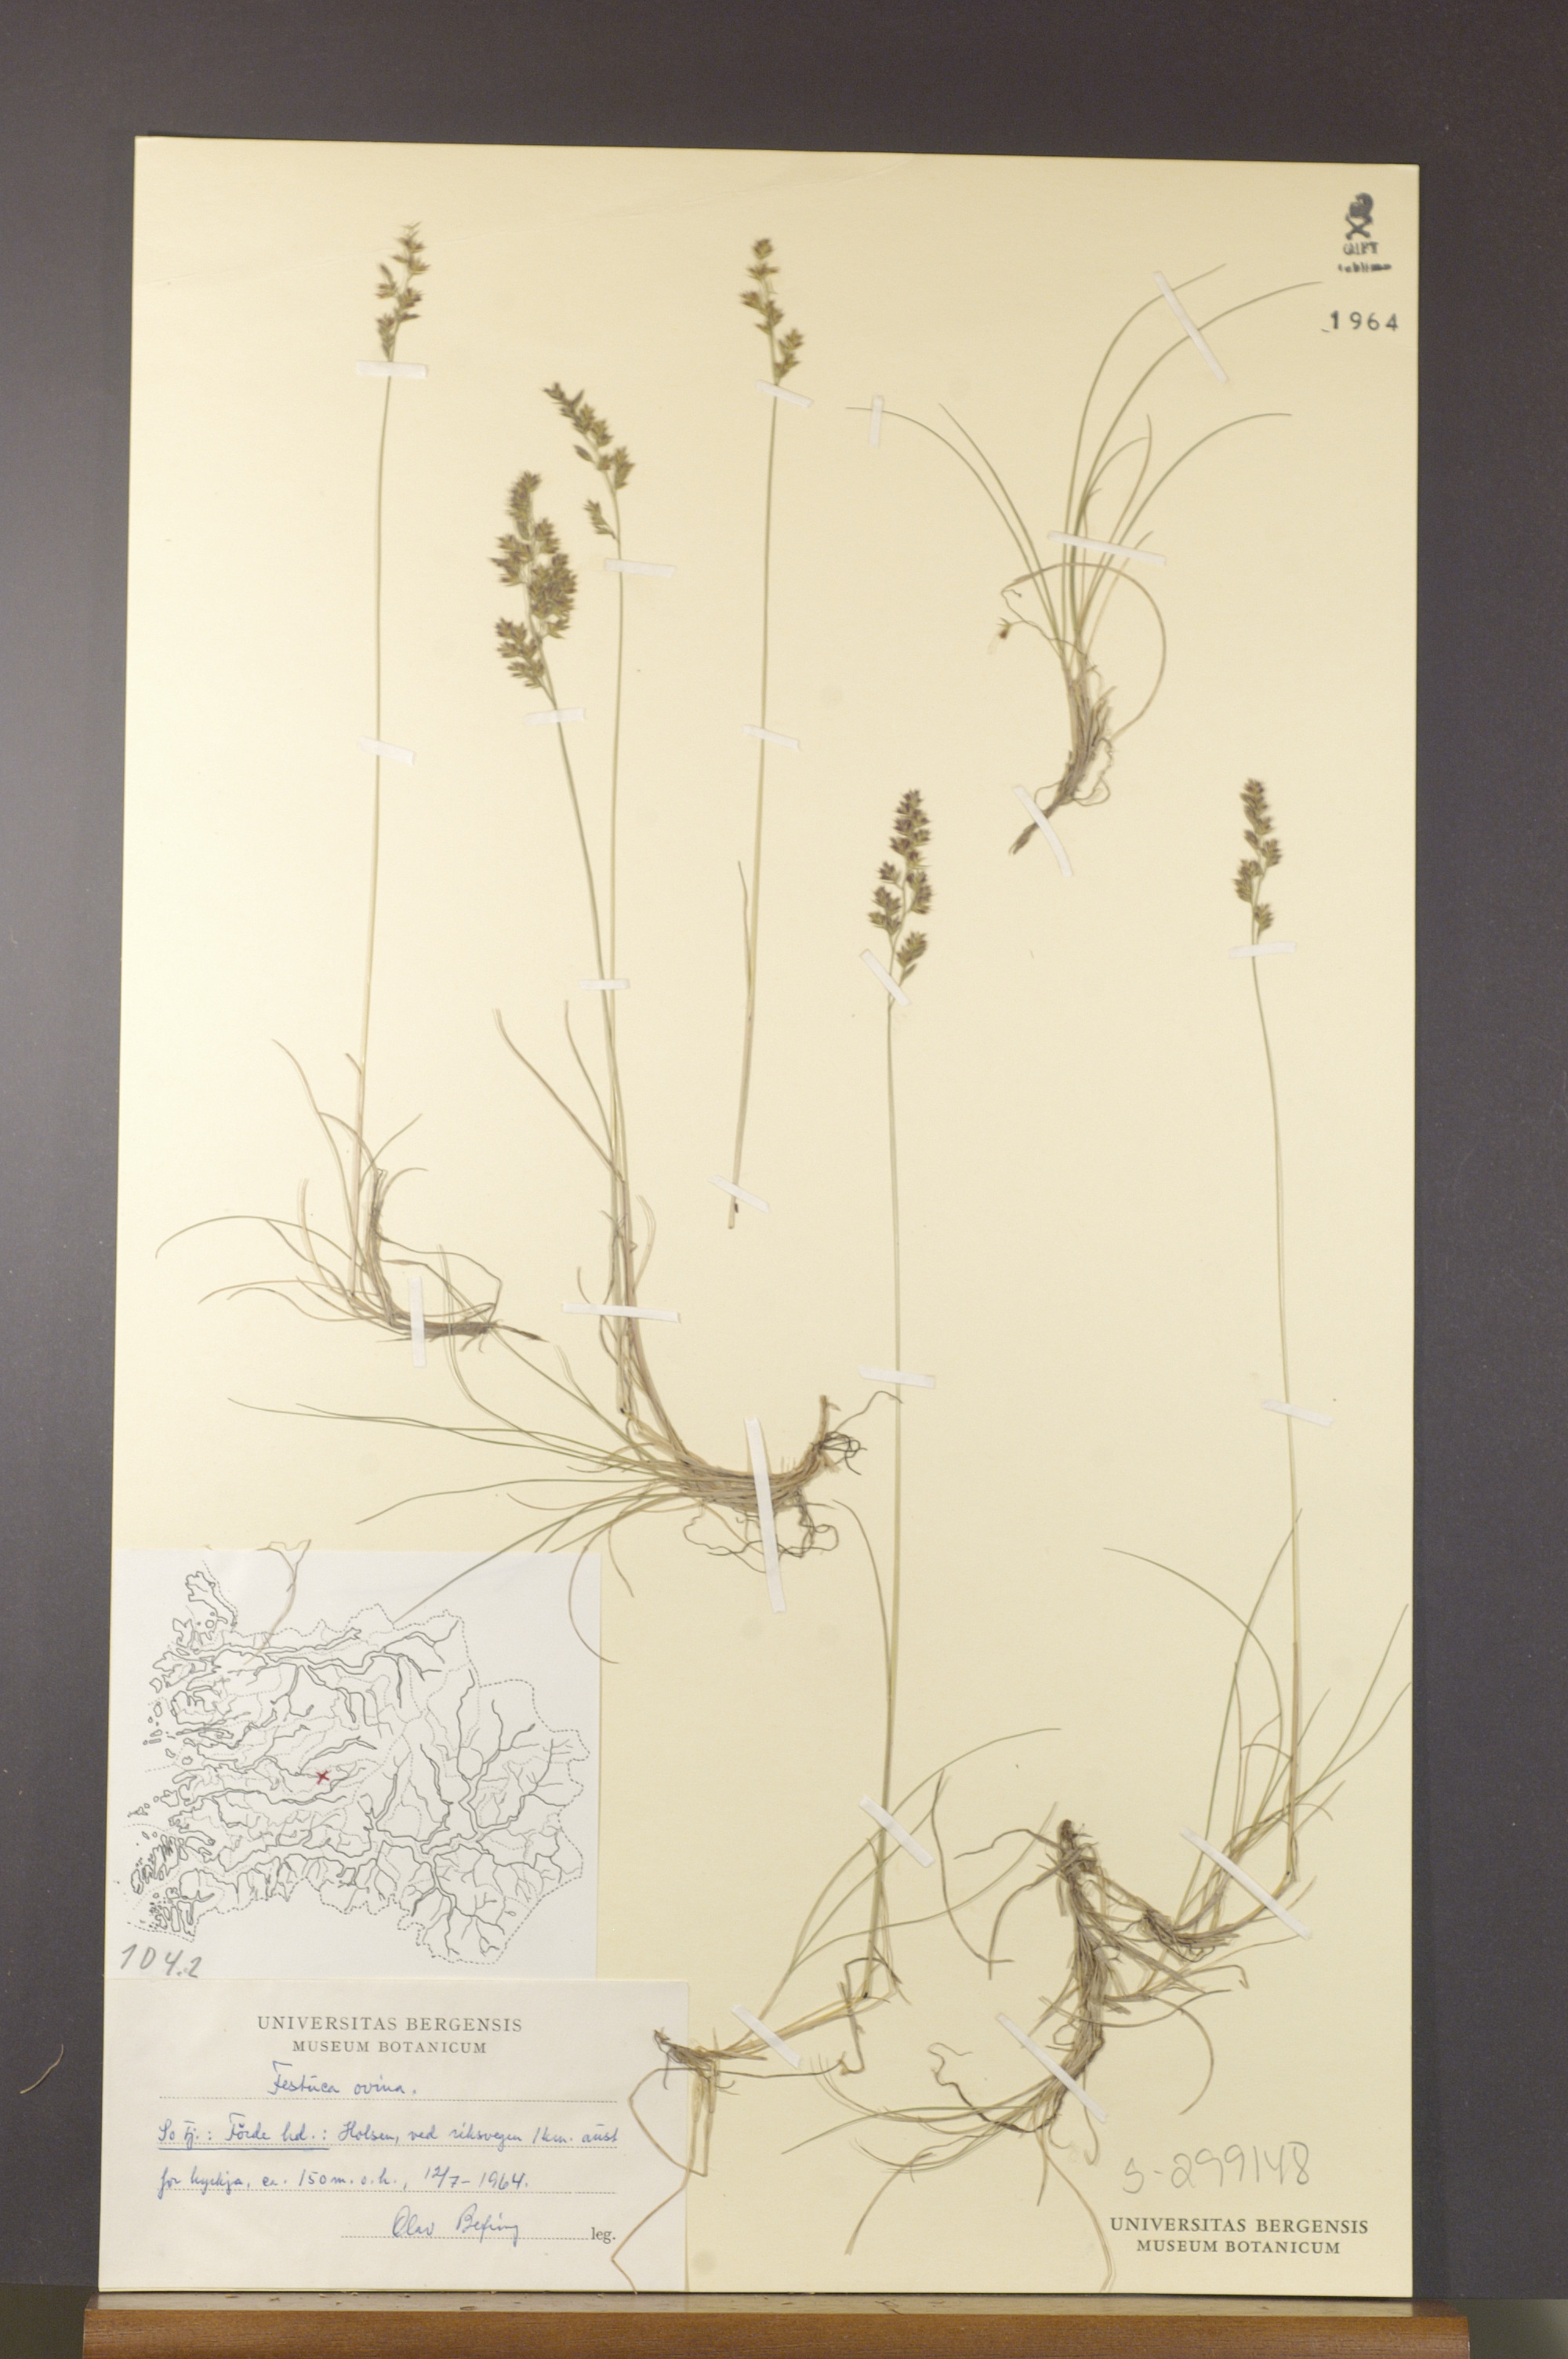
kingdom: Plantae
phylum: Tracheophyta
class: Liliopsida
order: Poales
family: Poaceae
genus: Festuca
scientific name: Festuca ovina
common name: Sheep fescue
